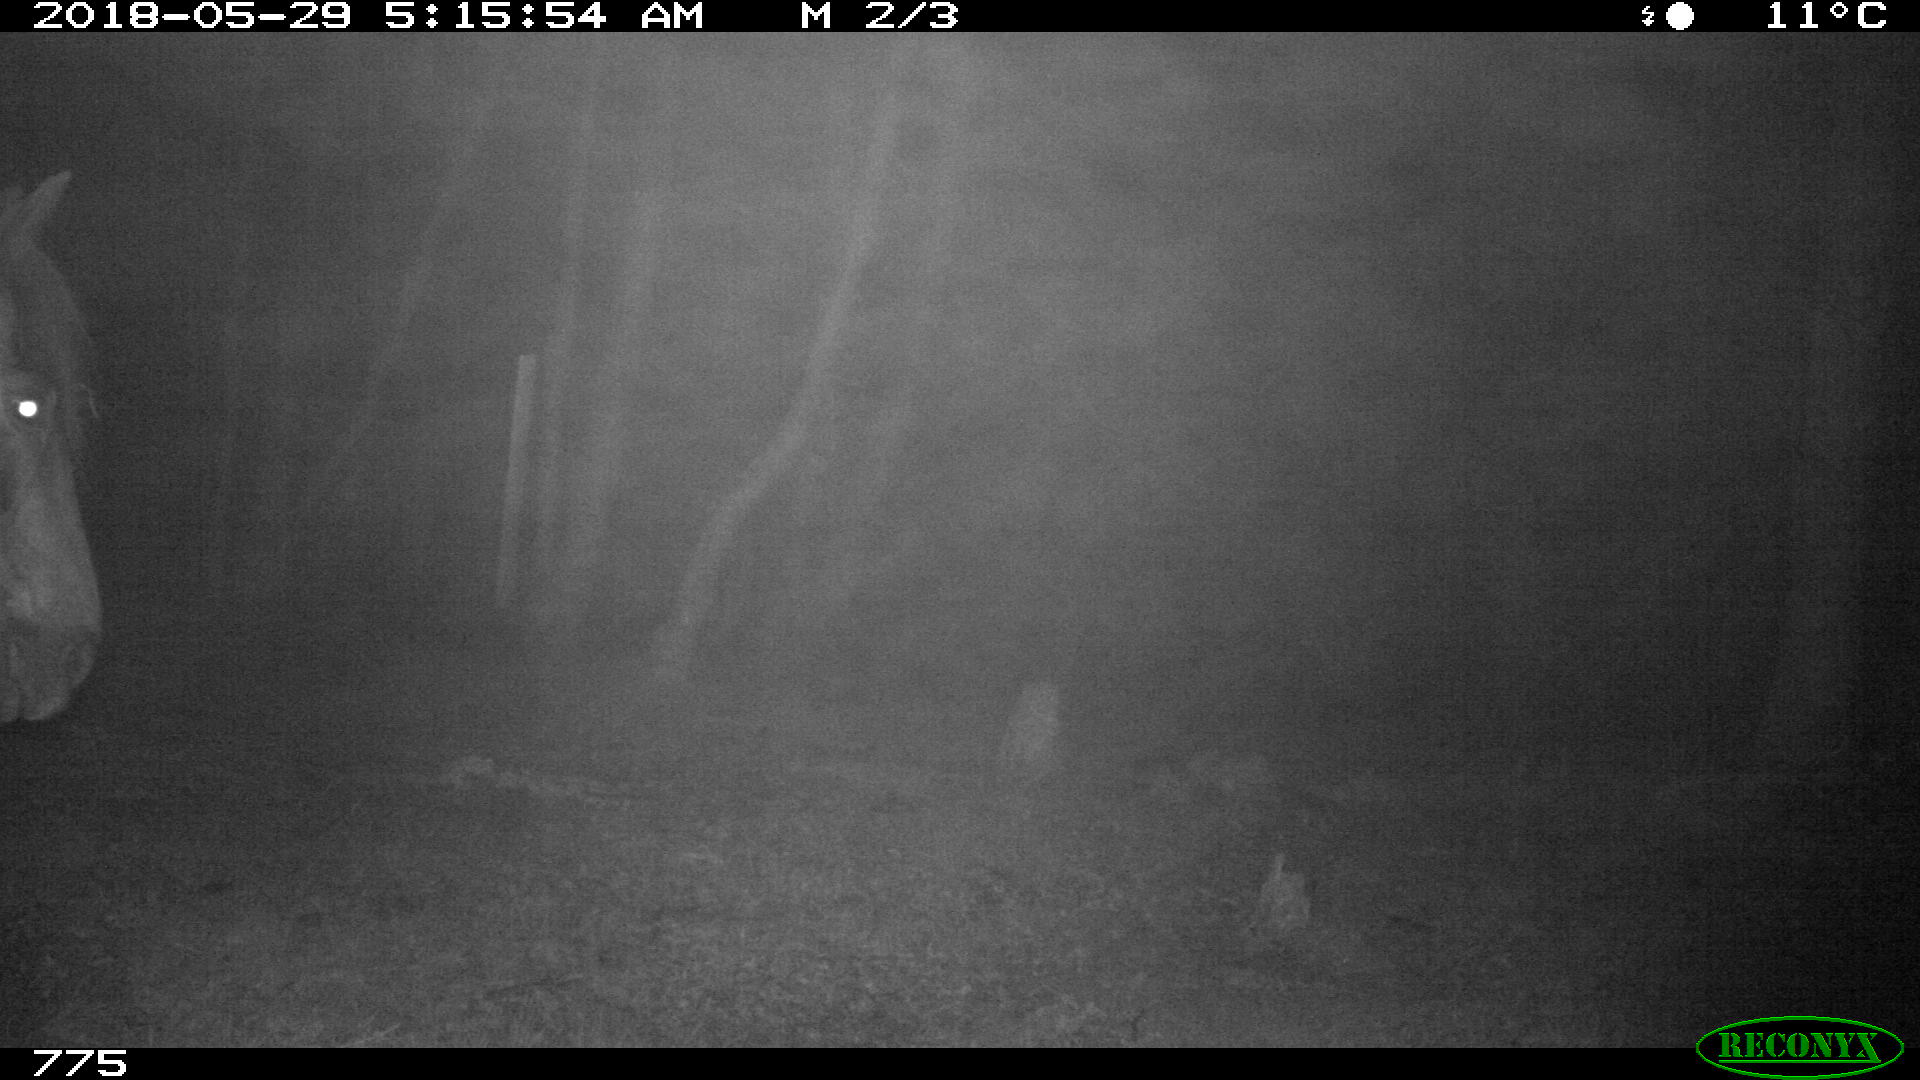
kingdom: Animalia
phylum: Chordata
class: Mammalia
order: Perissodactyla
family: Equidae
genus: Equus
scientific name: Equus caballus
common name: Horse
